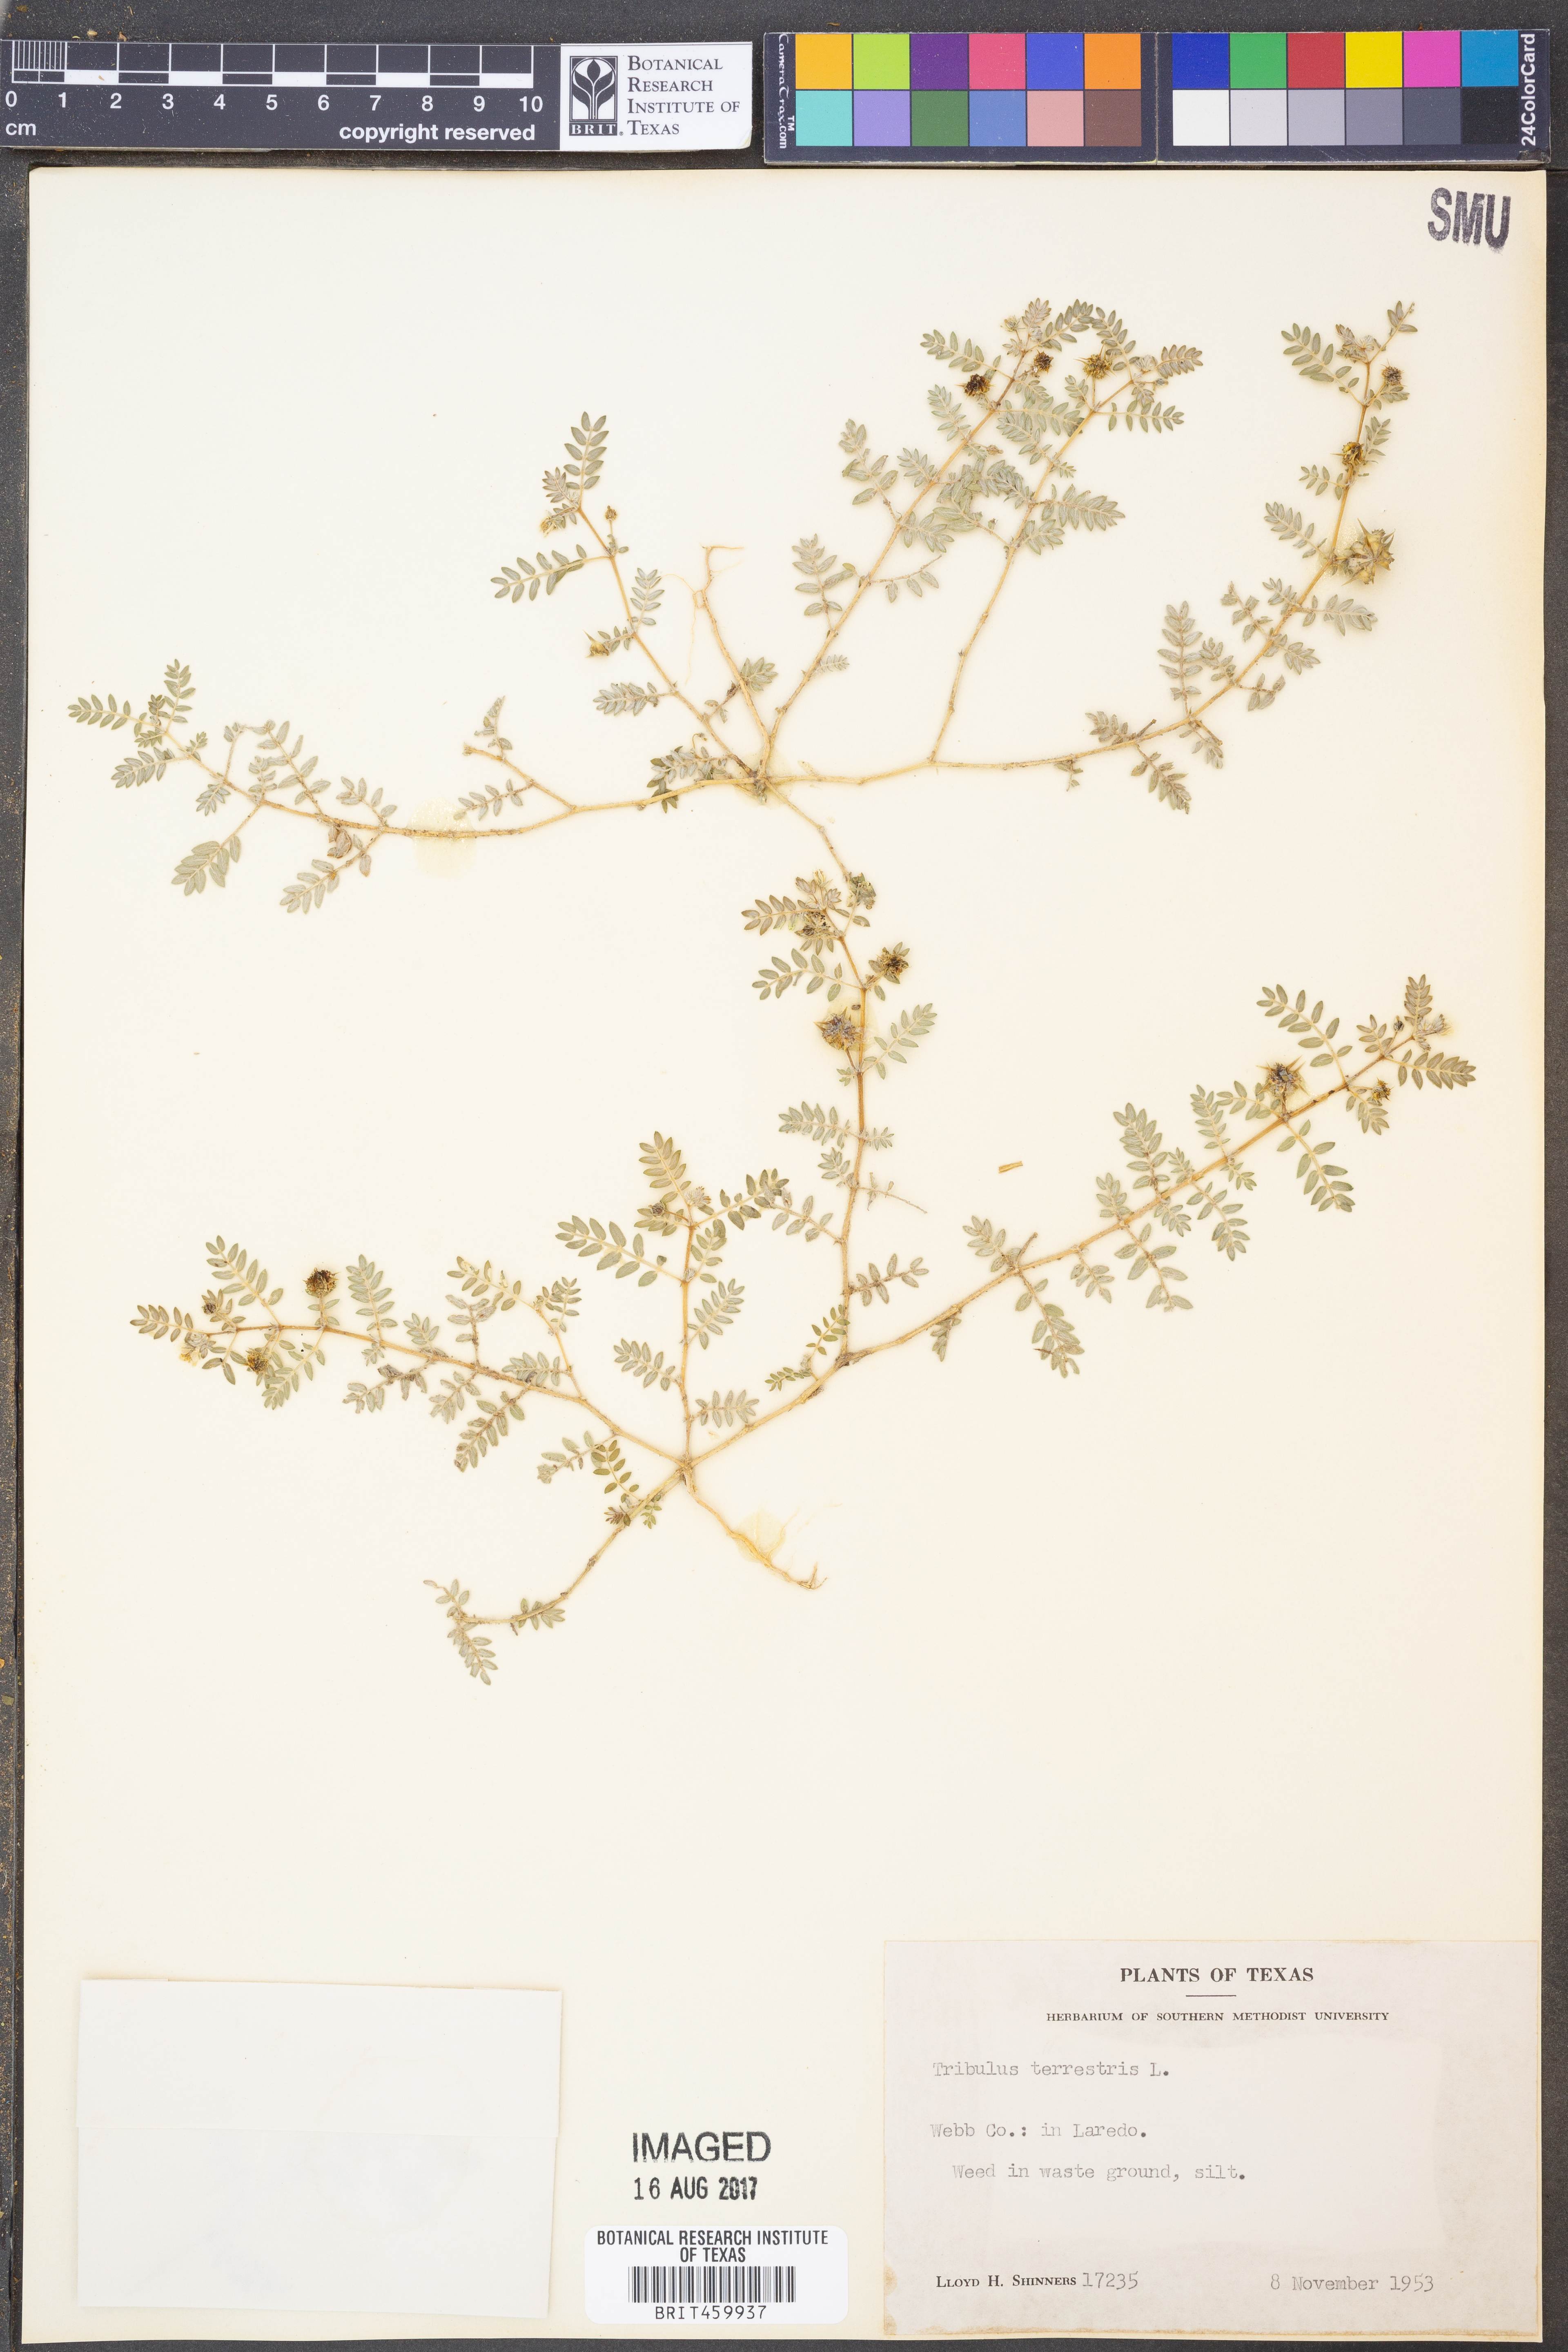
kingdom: Plantae
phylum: Tracheophyta
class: Magnoliopsida
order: Zygophyllales
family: Zygophyllaceae
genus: Tribulus
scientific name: Tribulus terrestris
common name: Puncturevine
